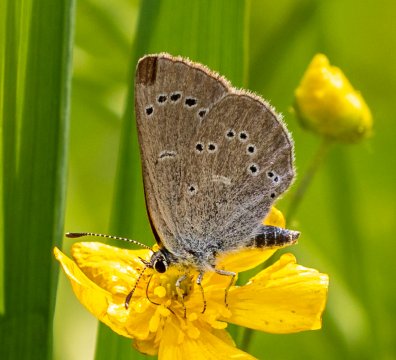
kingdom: Animalia
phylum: Arthropoda
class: Insecta
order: Lepidoptera
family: Lycaenidae
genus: Glaucopsyche
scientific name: Glaucopsyche lygdamus
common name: Silvery Blue
